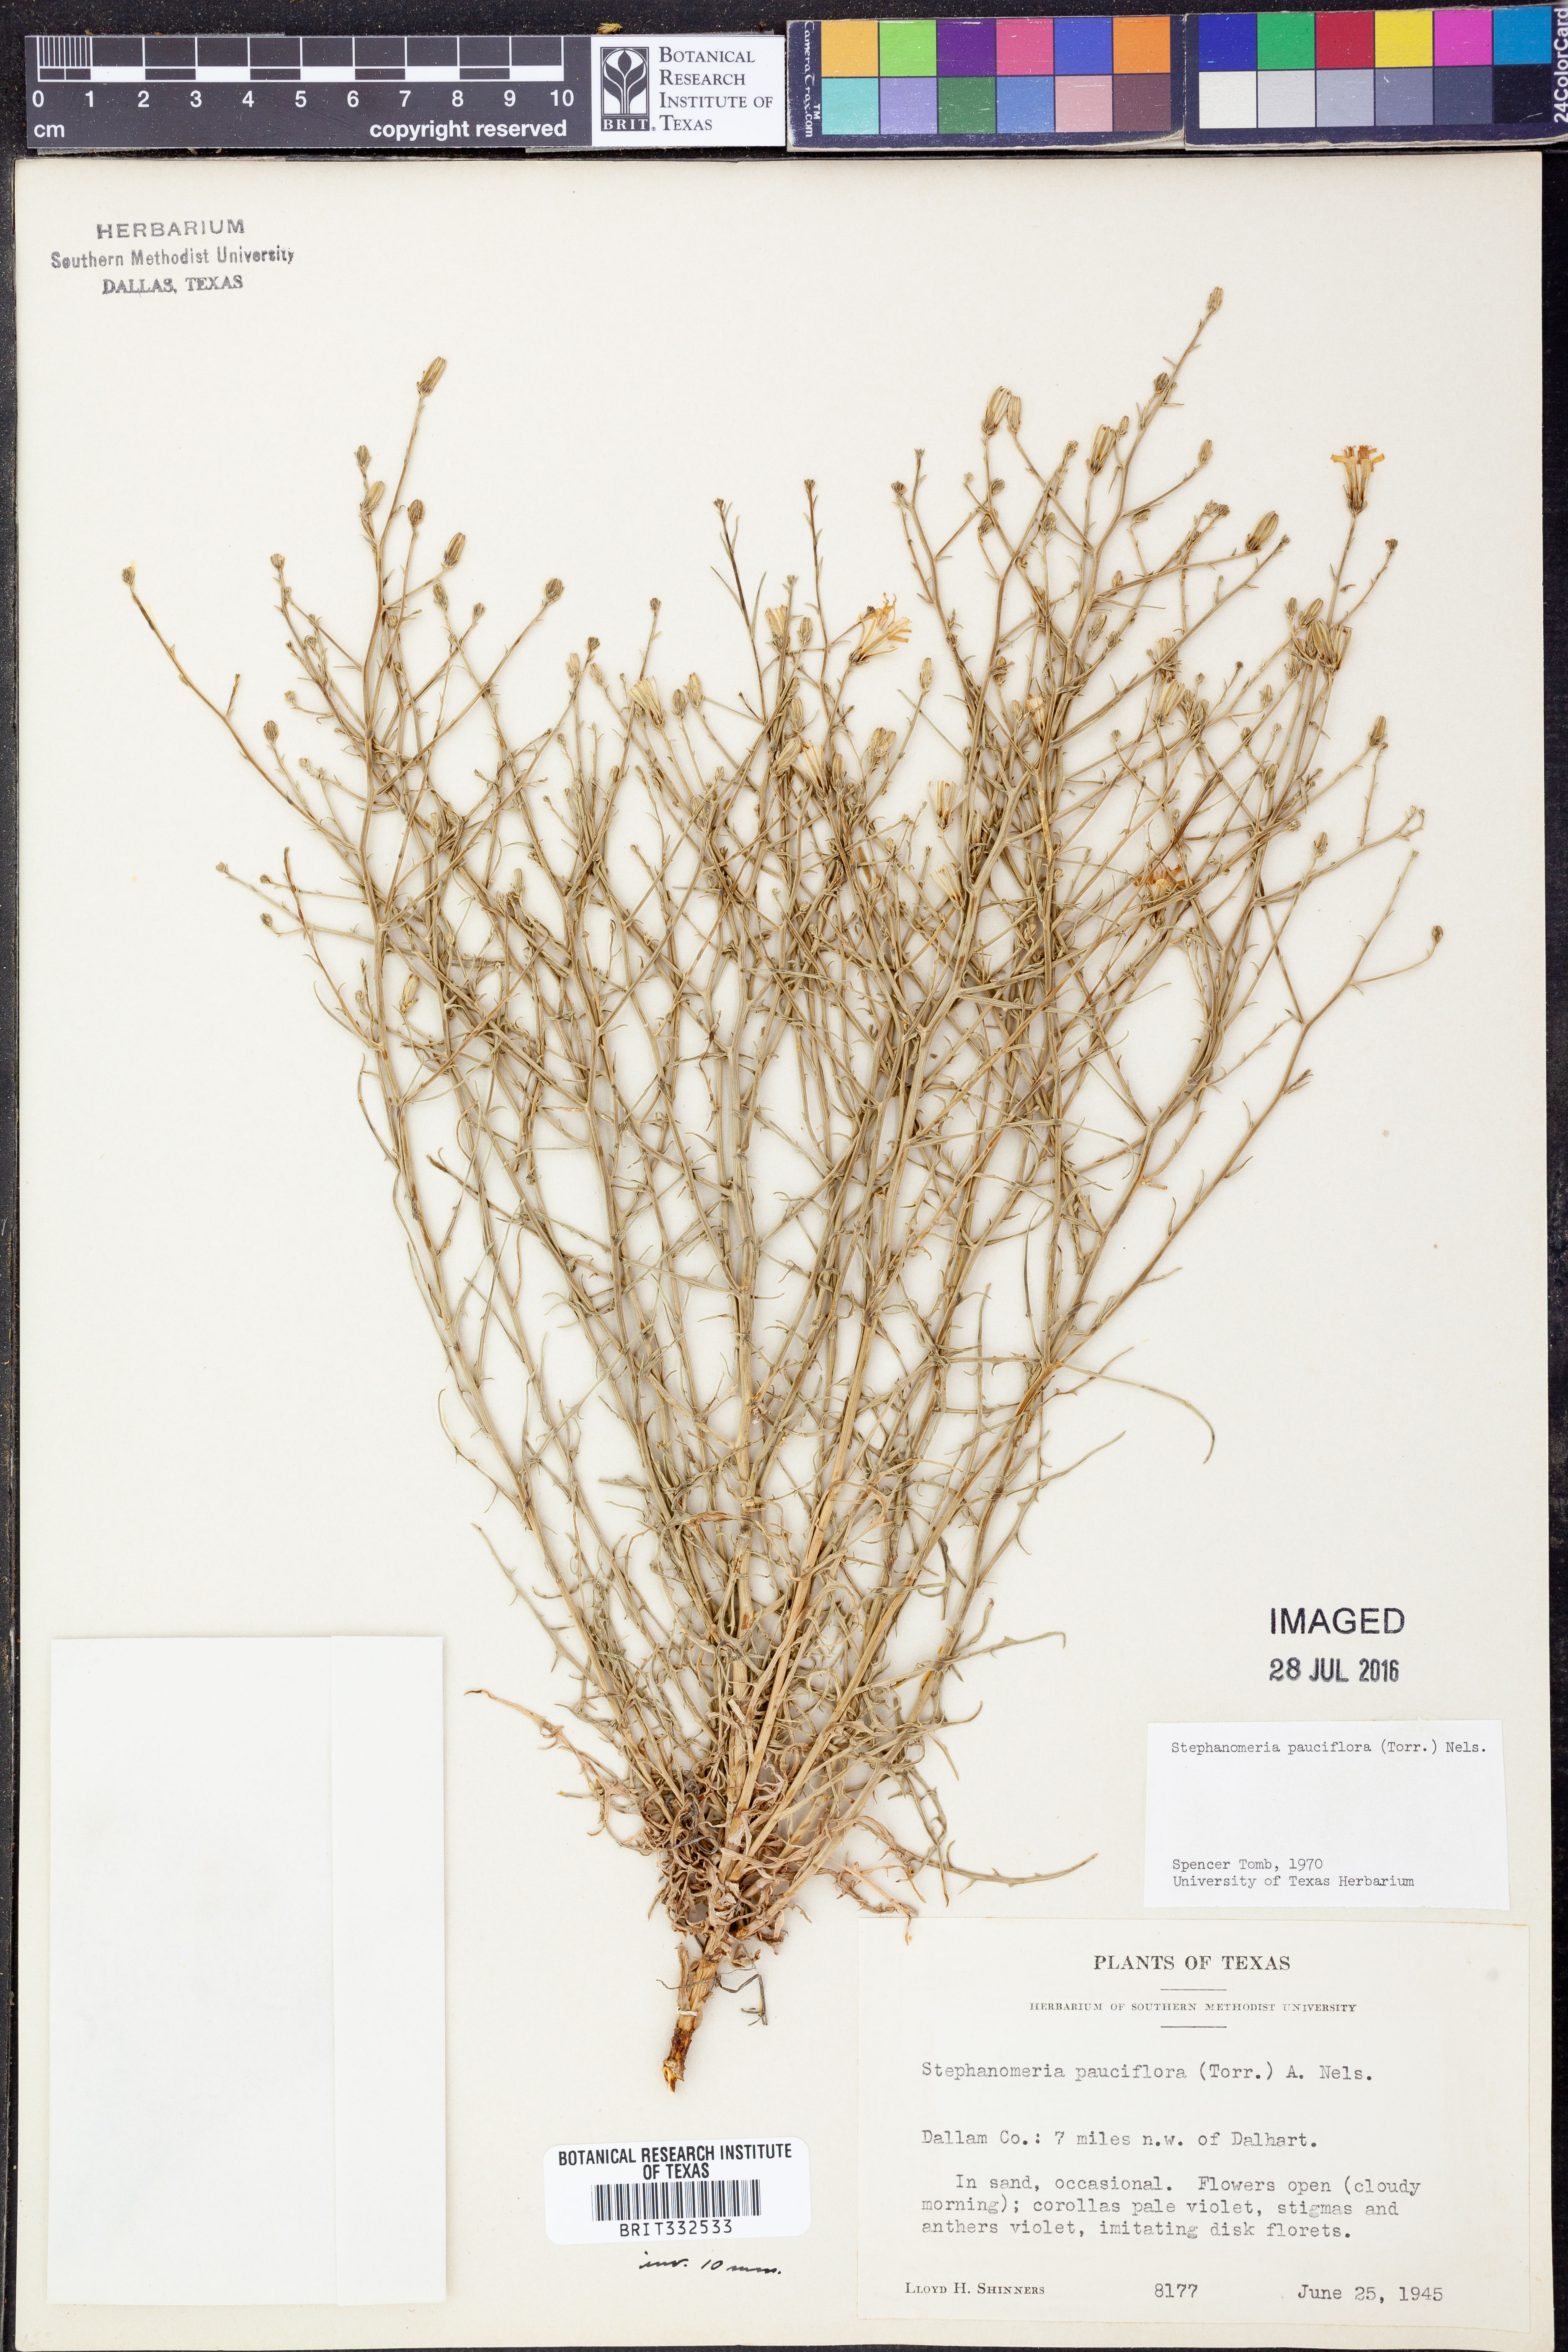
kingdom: Plantae
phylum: Tracheophyta
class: Magnoliopsida
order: Asterales
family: Asteraceae
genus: Stephanomeria
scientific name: Stephanomeria pauciflora
